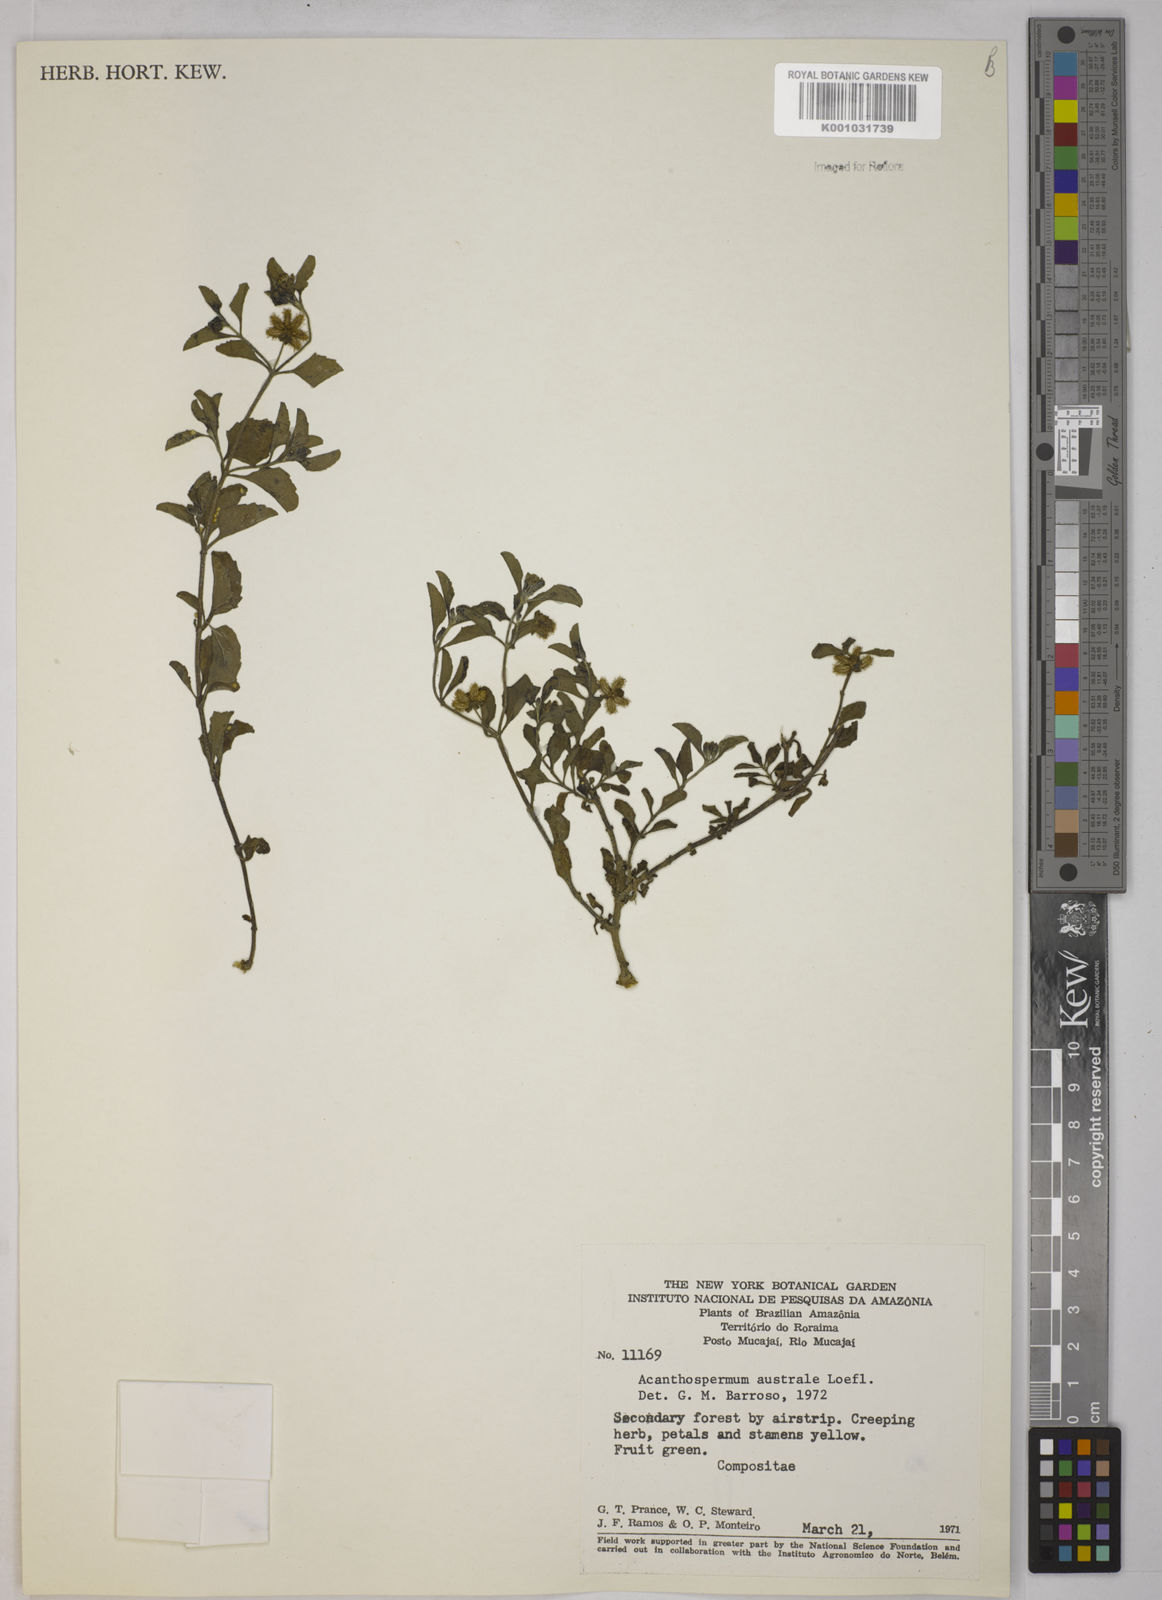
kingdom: Plantae
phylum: Tracheophyta
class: Magnoliopsida
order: Asterales
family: Asteraceae
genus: Acanthospermum
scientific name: Acanthospermum australe
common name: Paraguayan starbur
